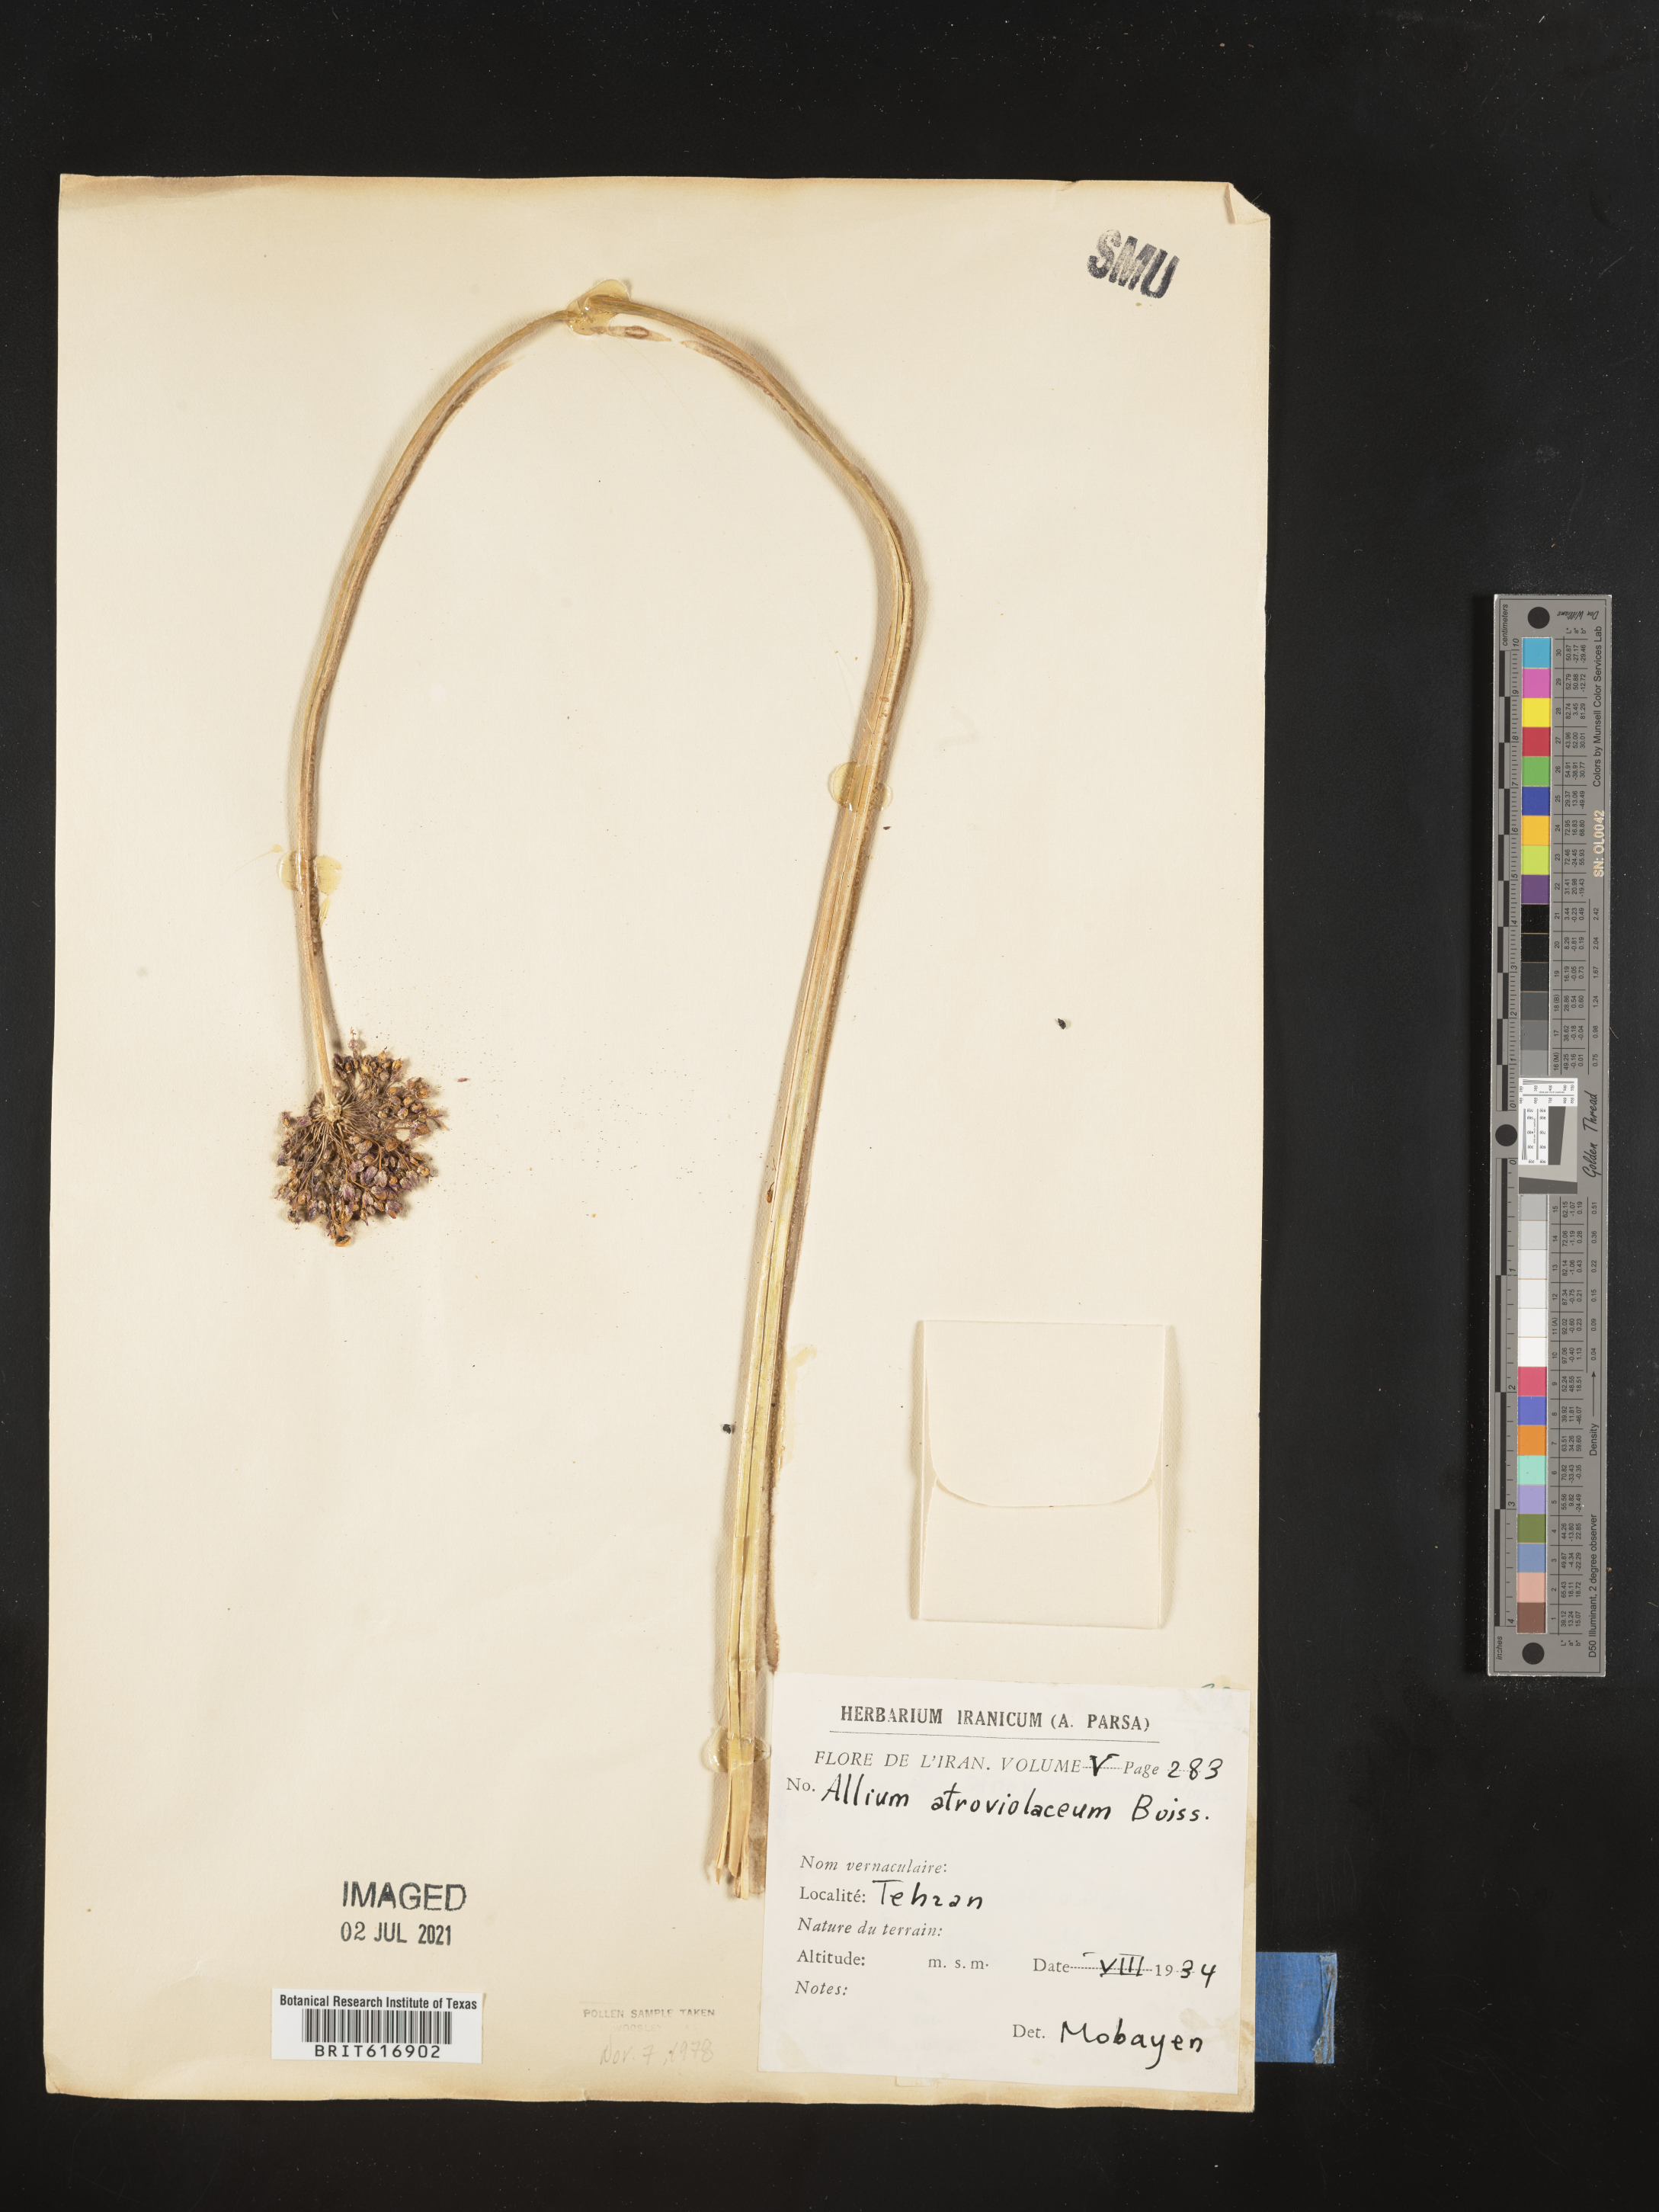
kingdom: Plantae
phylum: Tracheophyta
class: Liliopsida
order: Asparagales
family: Amaryllidaceae
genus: Allium
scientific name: Allium atroviolaceum
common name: Broadleaf wild leek
